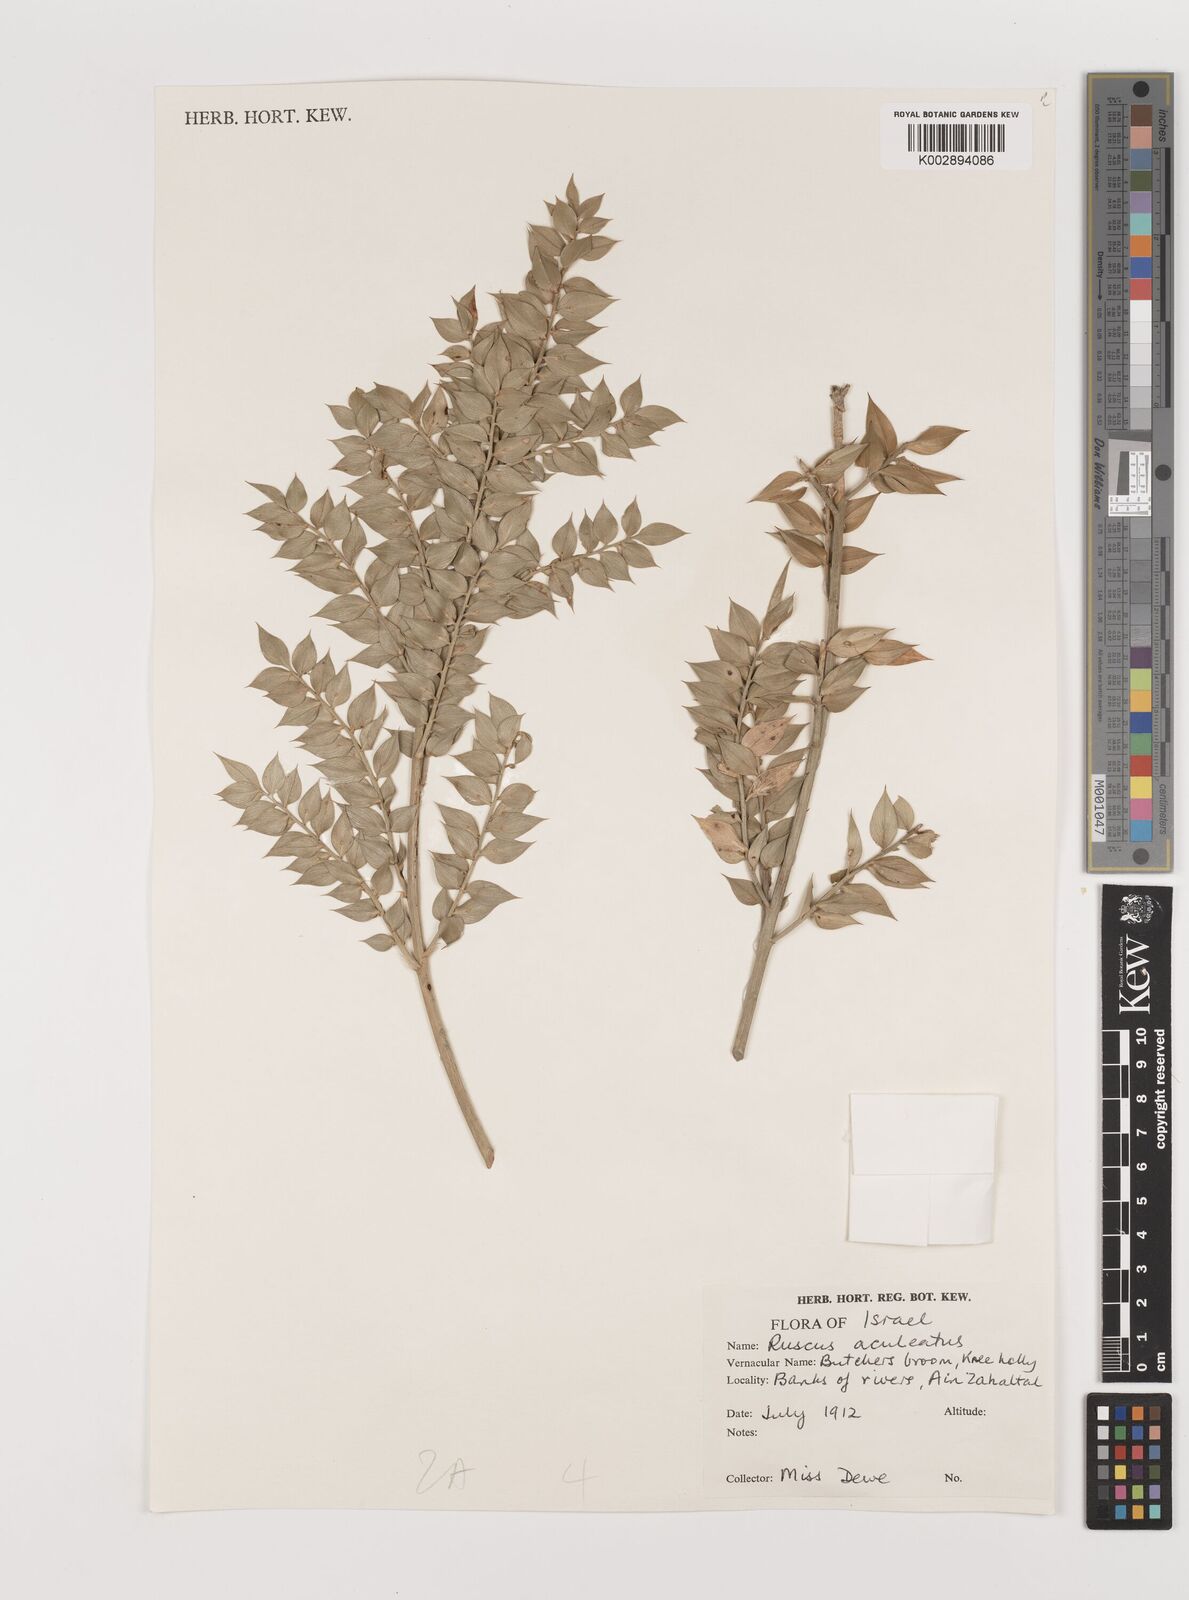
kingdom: Plantae
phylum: Tracheophyta
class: Liliopsida
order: Asparagales
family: Asparagaceae
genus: Ruscus
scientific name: Ruscus aculeatus
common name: Butcher's-broom
